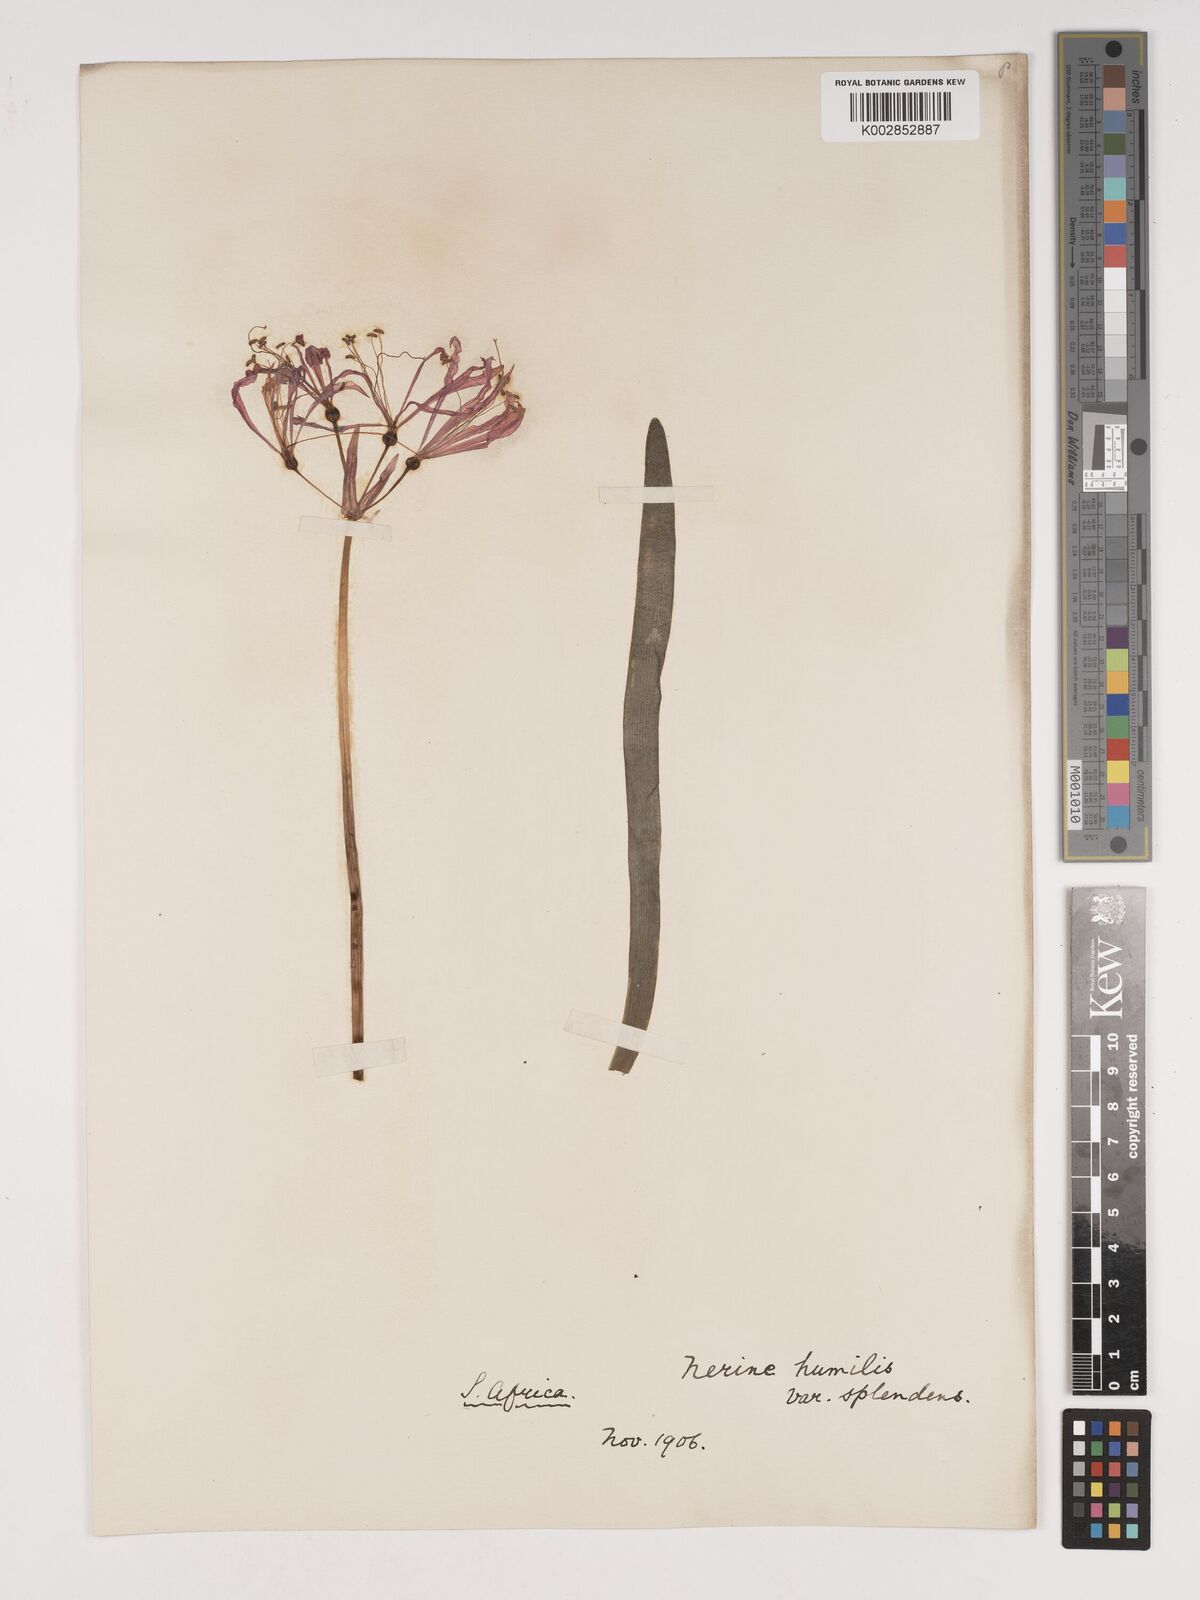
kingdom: Plantae
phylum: Tracheophyta
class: Liliopsida
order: Asparagales
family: Amaryllidaceae
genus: Nerine
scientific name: Nerine humilis
